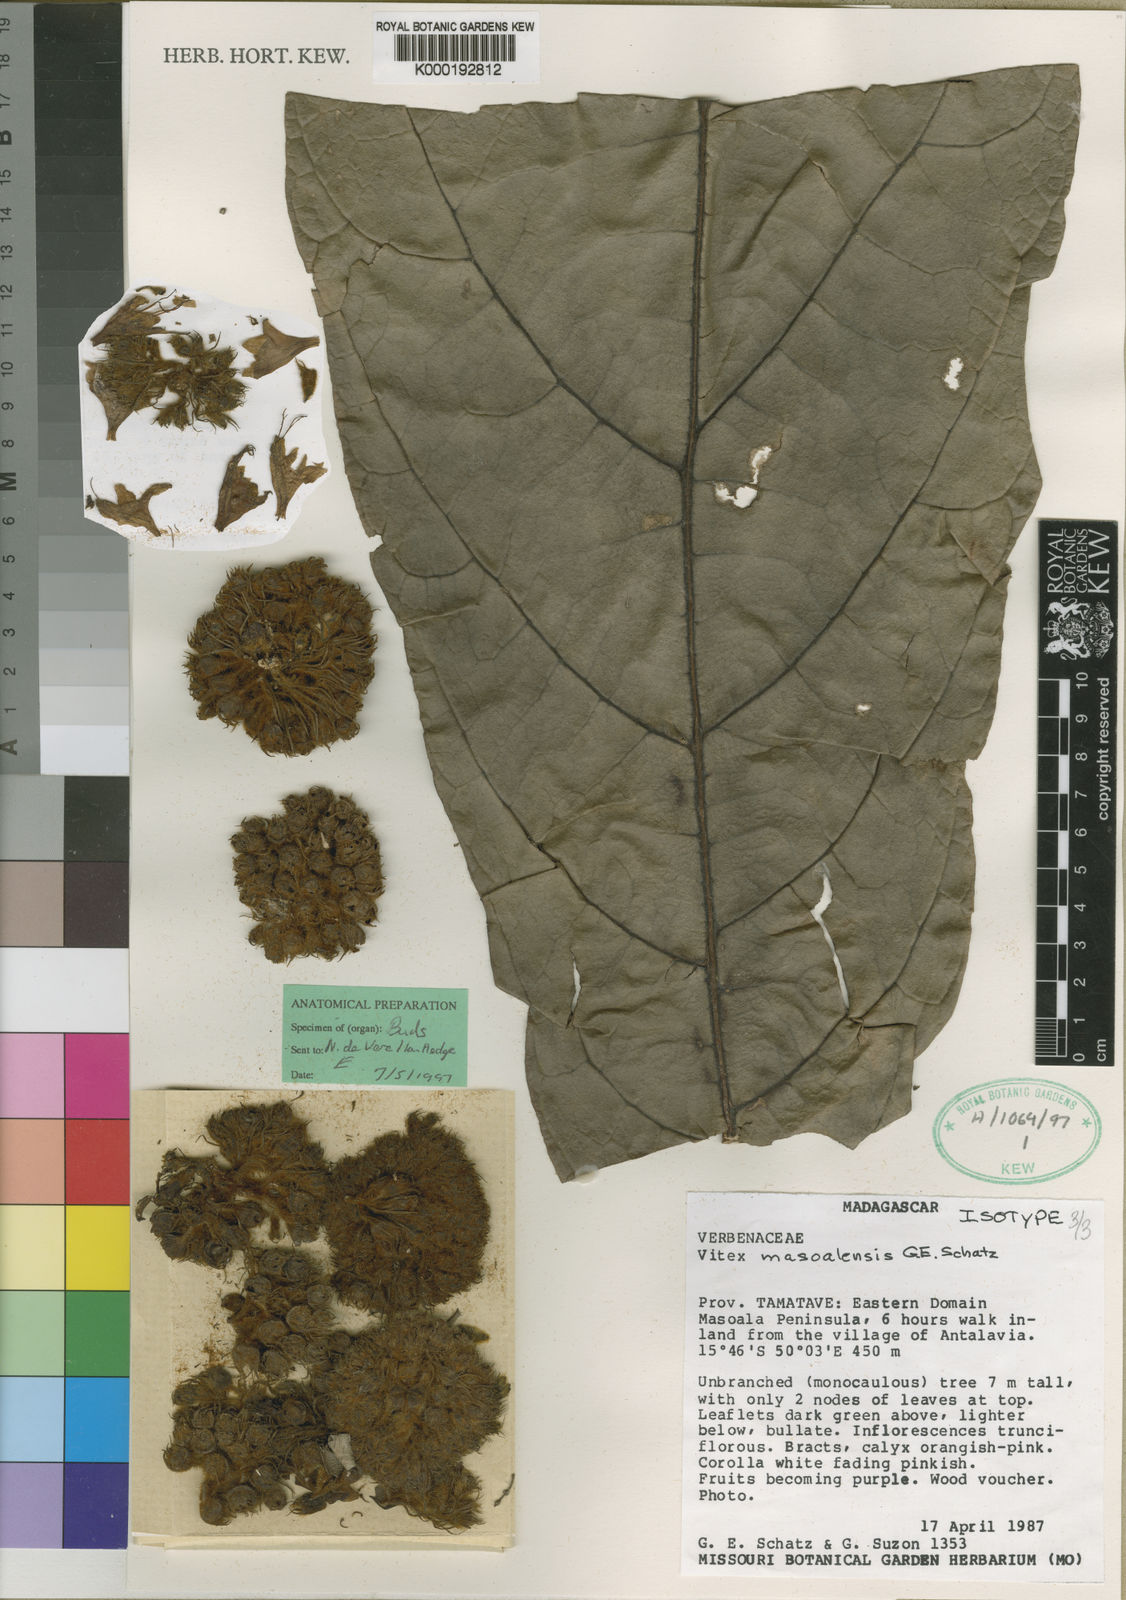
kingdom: Plantae
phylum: Tracheophyta
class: Magnoliopsida
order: Lamiales
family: Lamiaceae
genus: Vitex
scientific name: Vitex masoalensis
